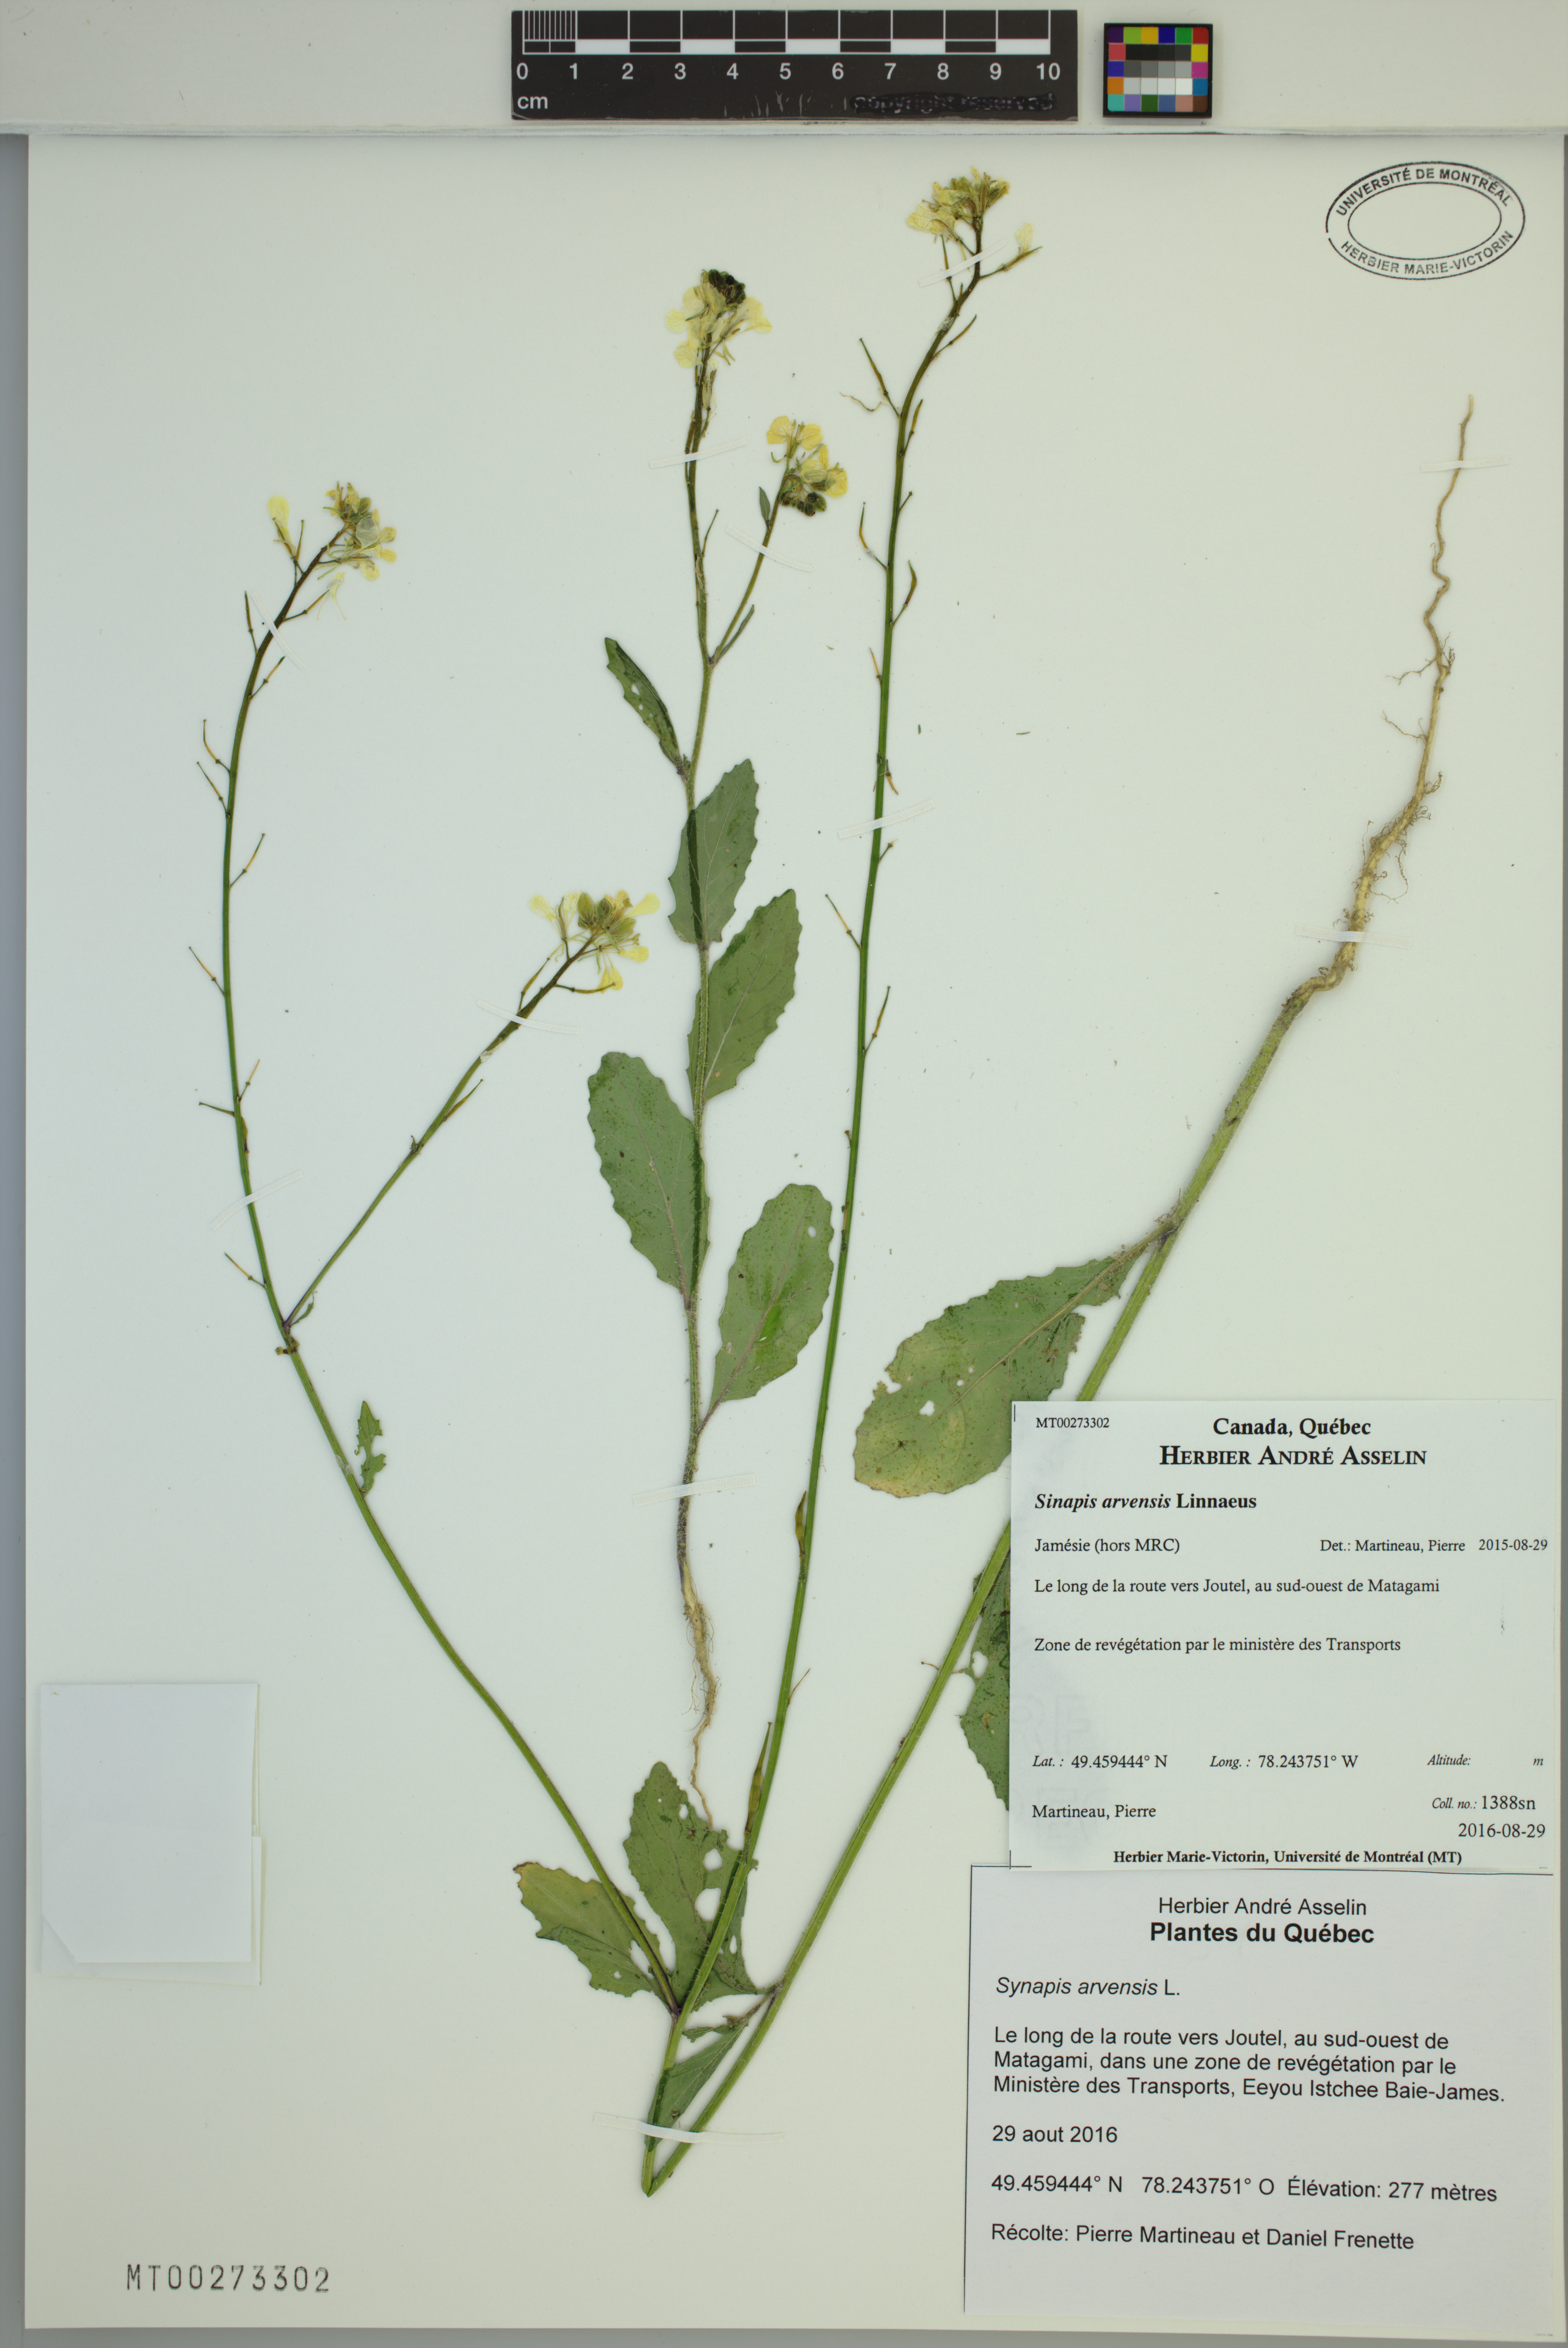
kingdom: Plantae
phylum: Tracheophyta
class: Magnoliopsida
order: Brassicales
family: Brassicaceae
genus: Sinapis
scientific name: Sinapis arvensis
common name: Charlock
